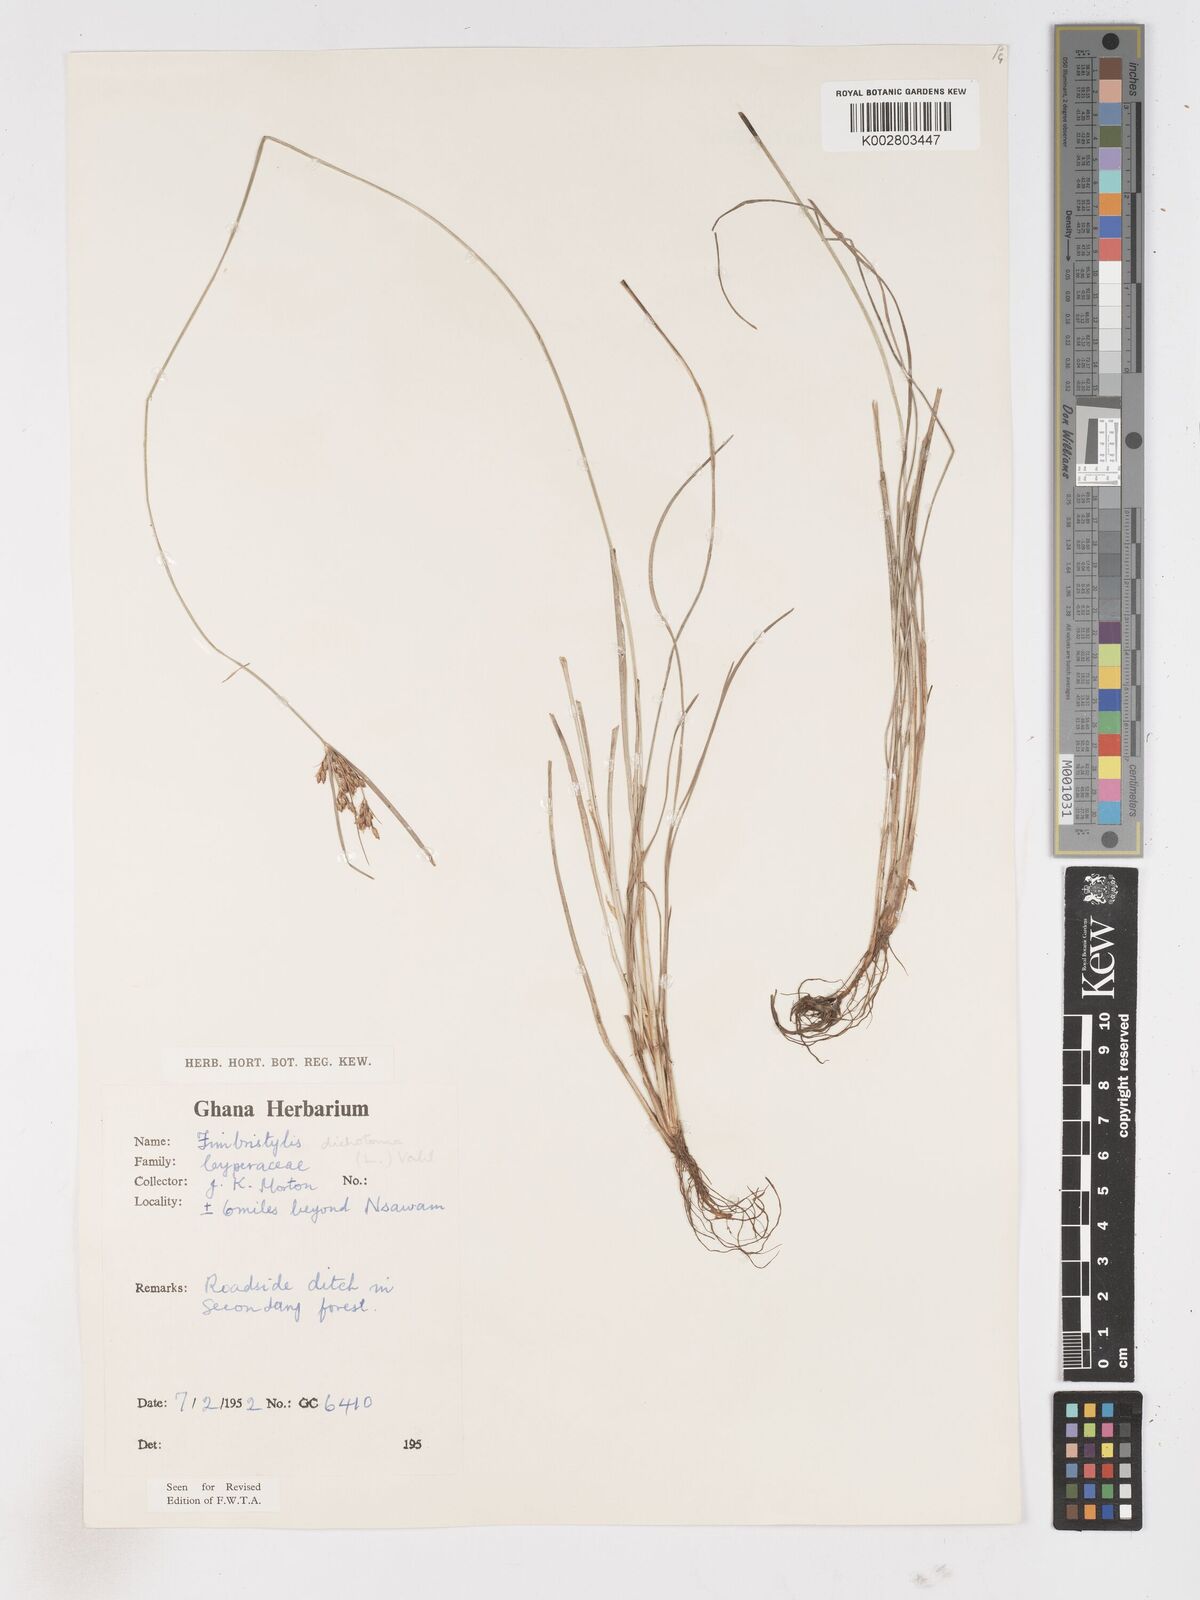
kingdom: Plantae
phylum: Tracheophyta
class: Liliopsida
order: Poales
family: Cyperaceae
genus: Fimbristylis
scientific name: Fimbristylis dichotoma
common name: Forked fimbry
